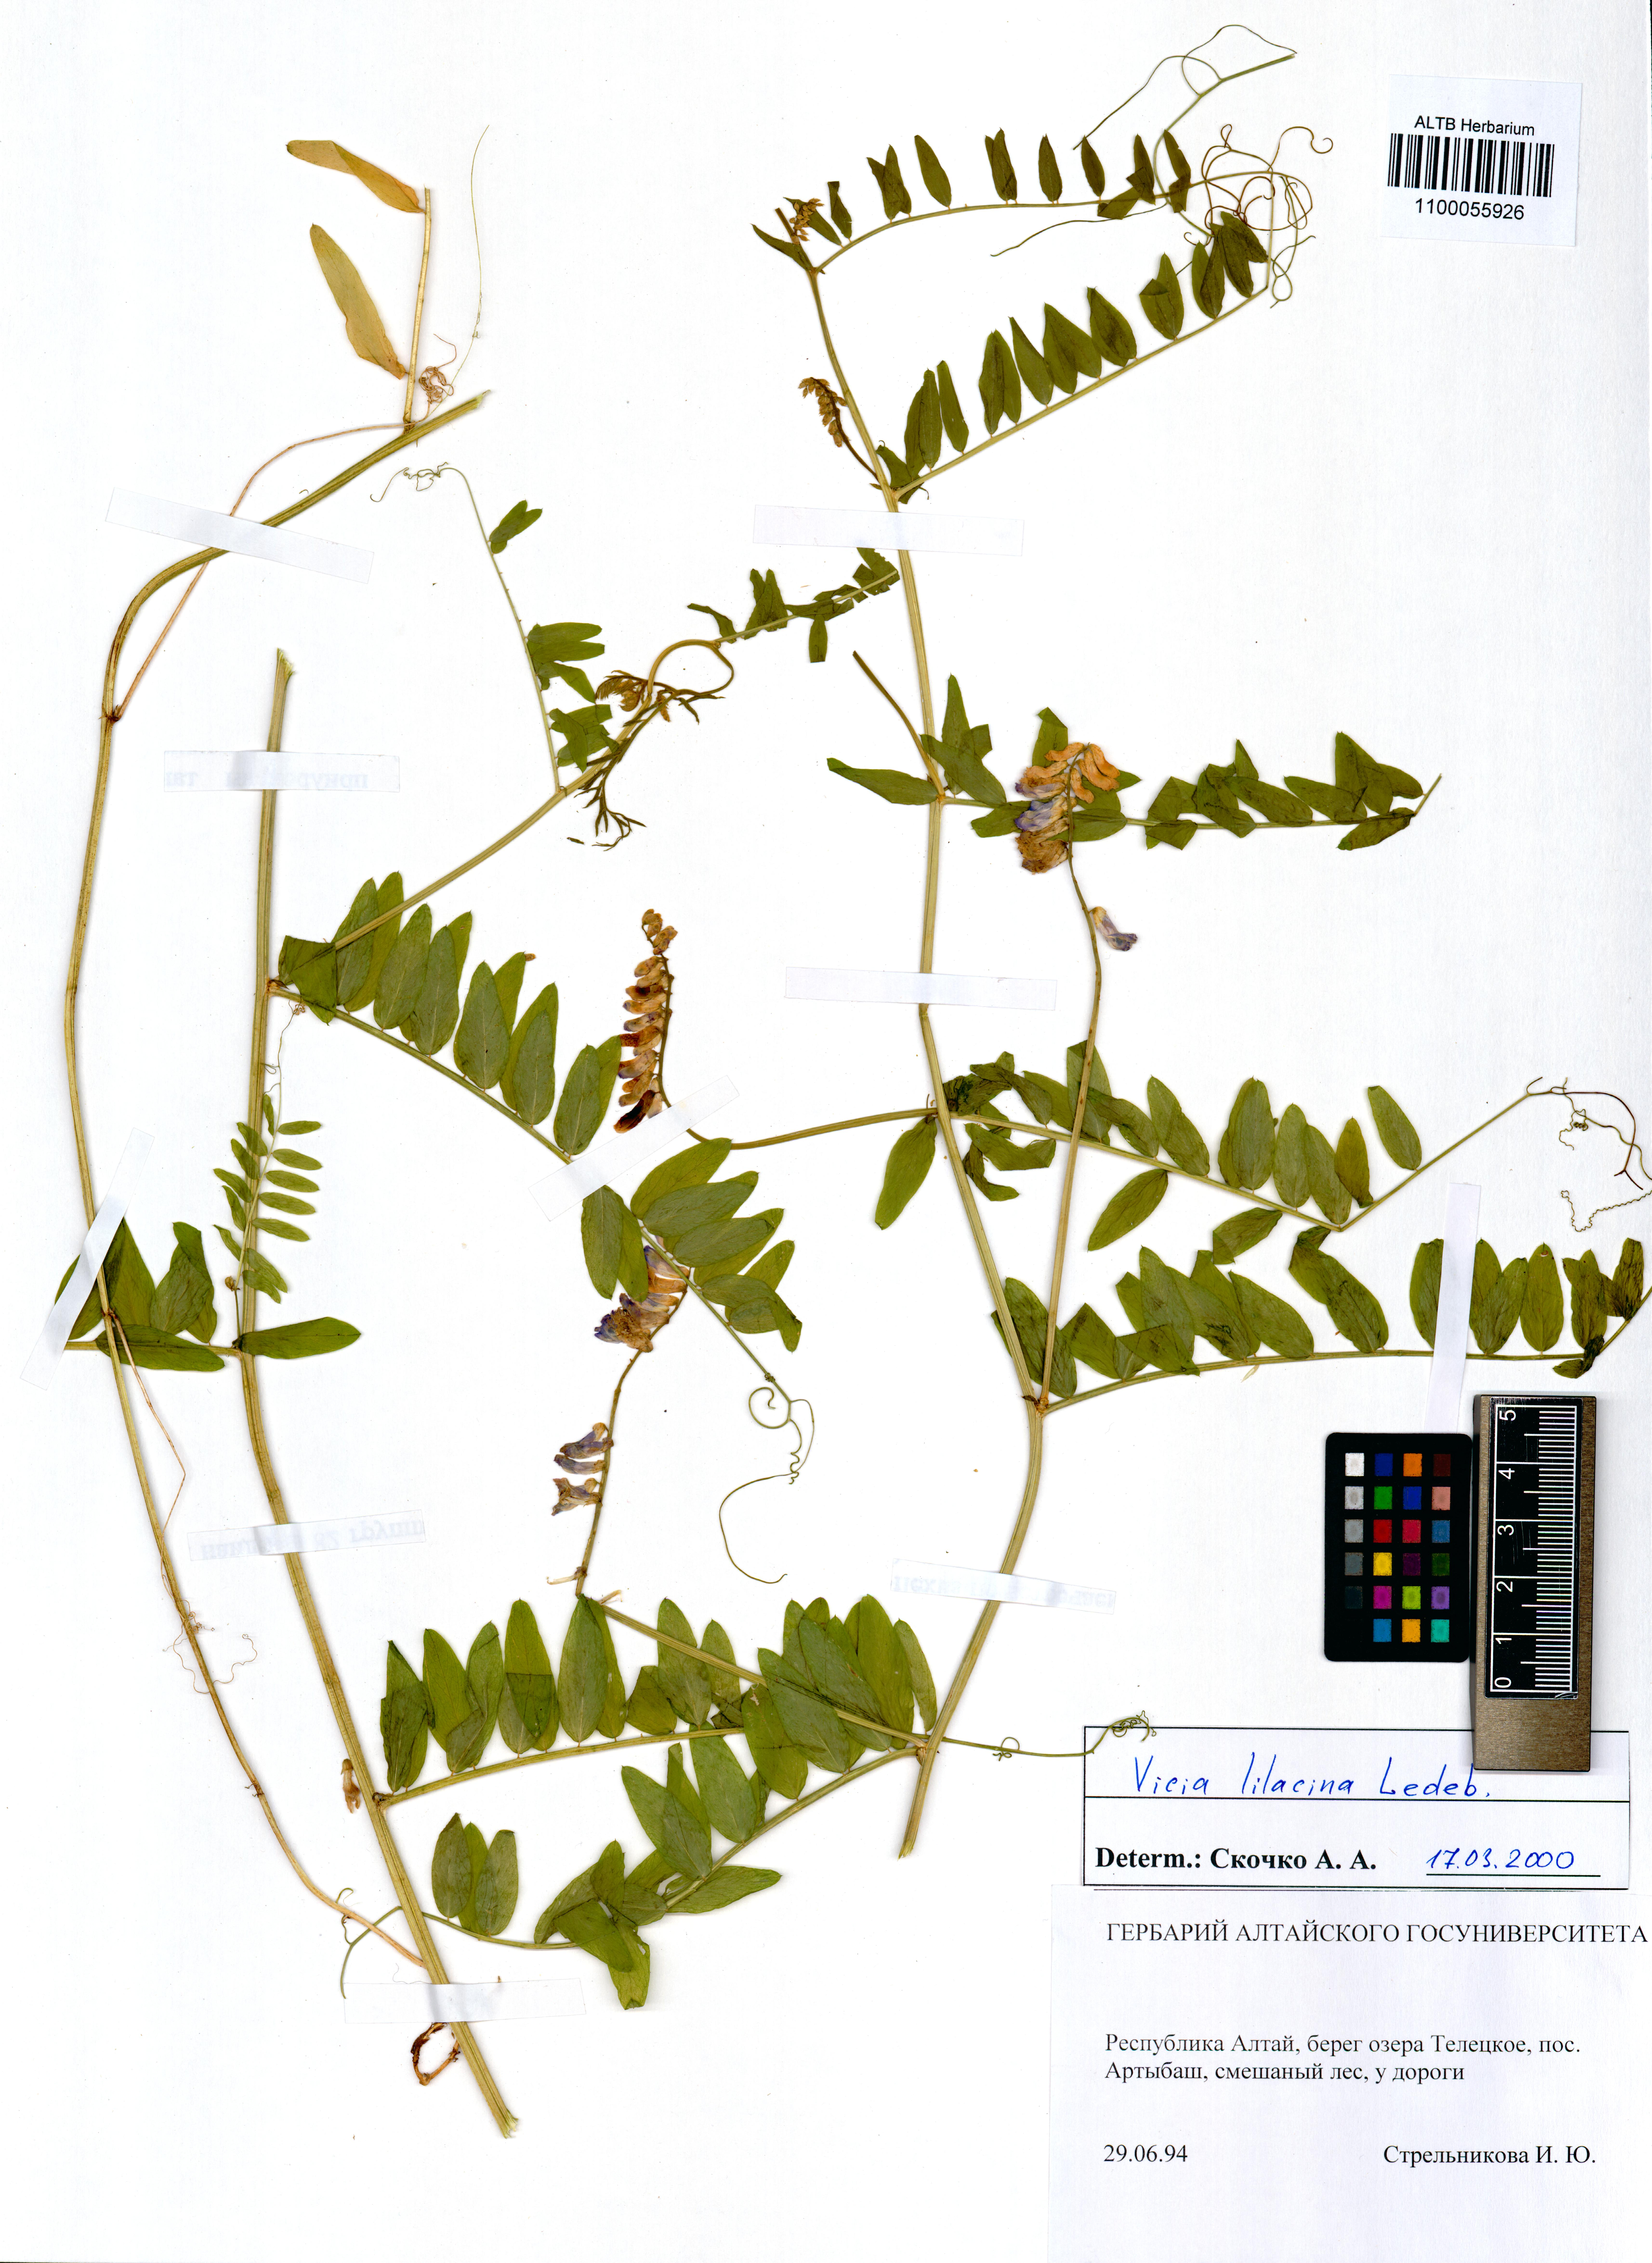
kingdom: Plantae
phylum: Tracheophyta
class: Magnoliopsida
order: Fabales
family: Fabaceae
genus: Vicia
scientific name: Vicia lilacina
